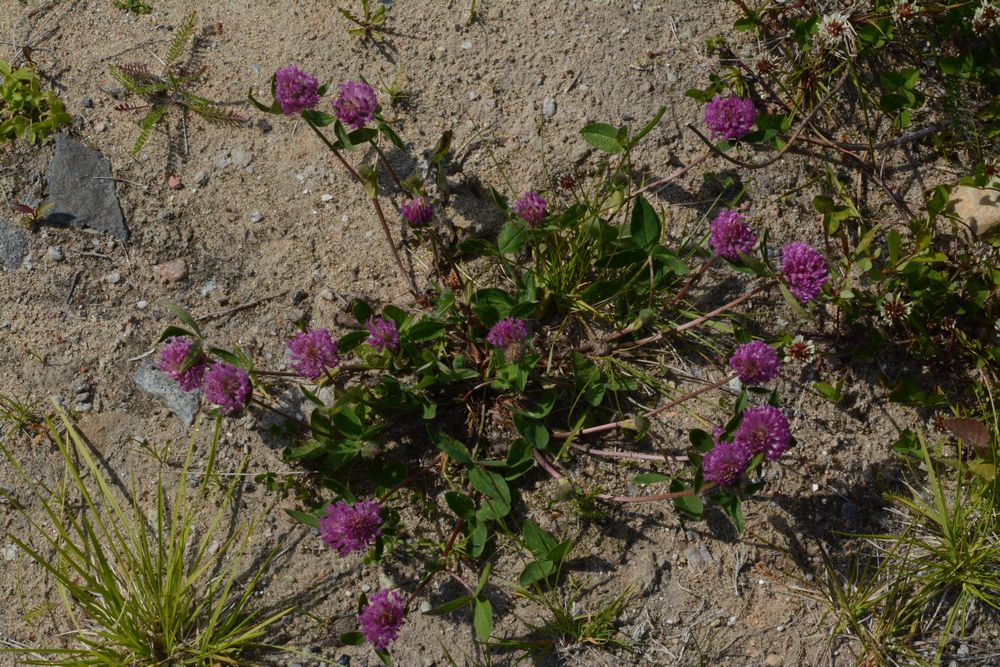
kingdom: Plantae
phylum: Tracheophyta
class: Magnoliopsida
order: Fabales
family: Fabaceae
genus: Trifolium
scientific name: Trifolium pratense
